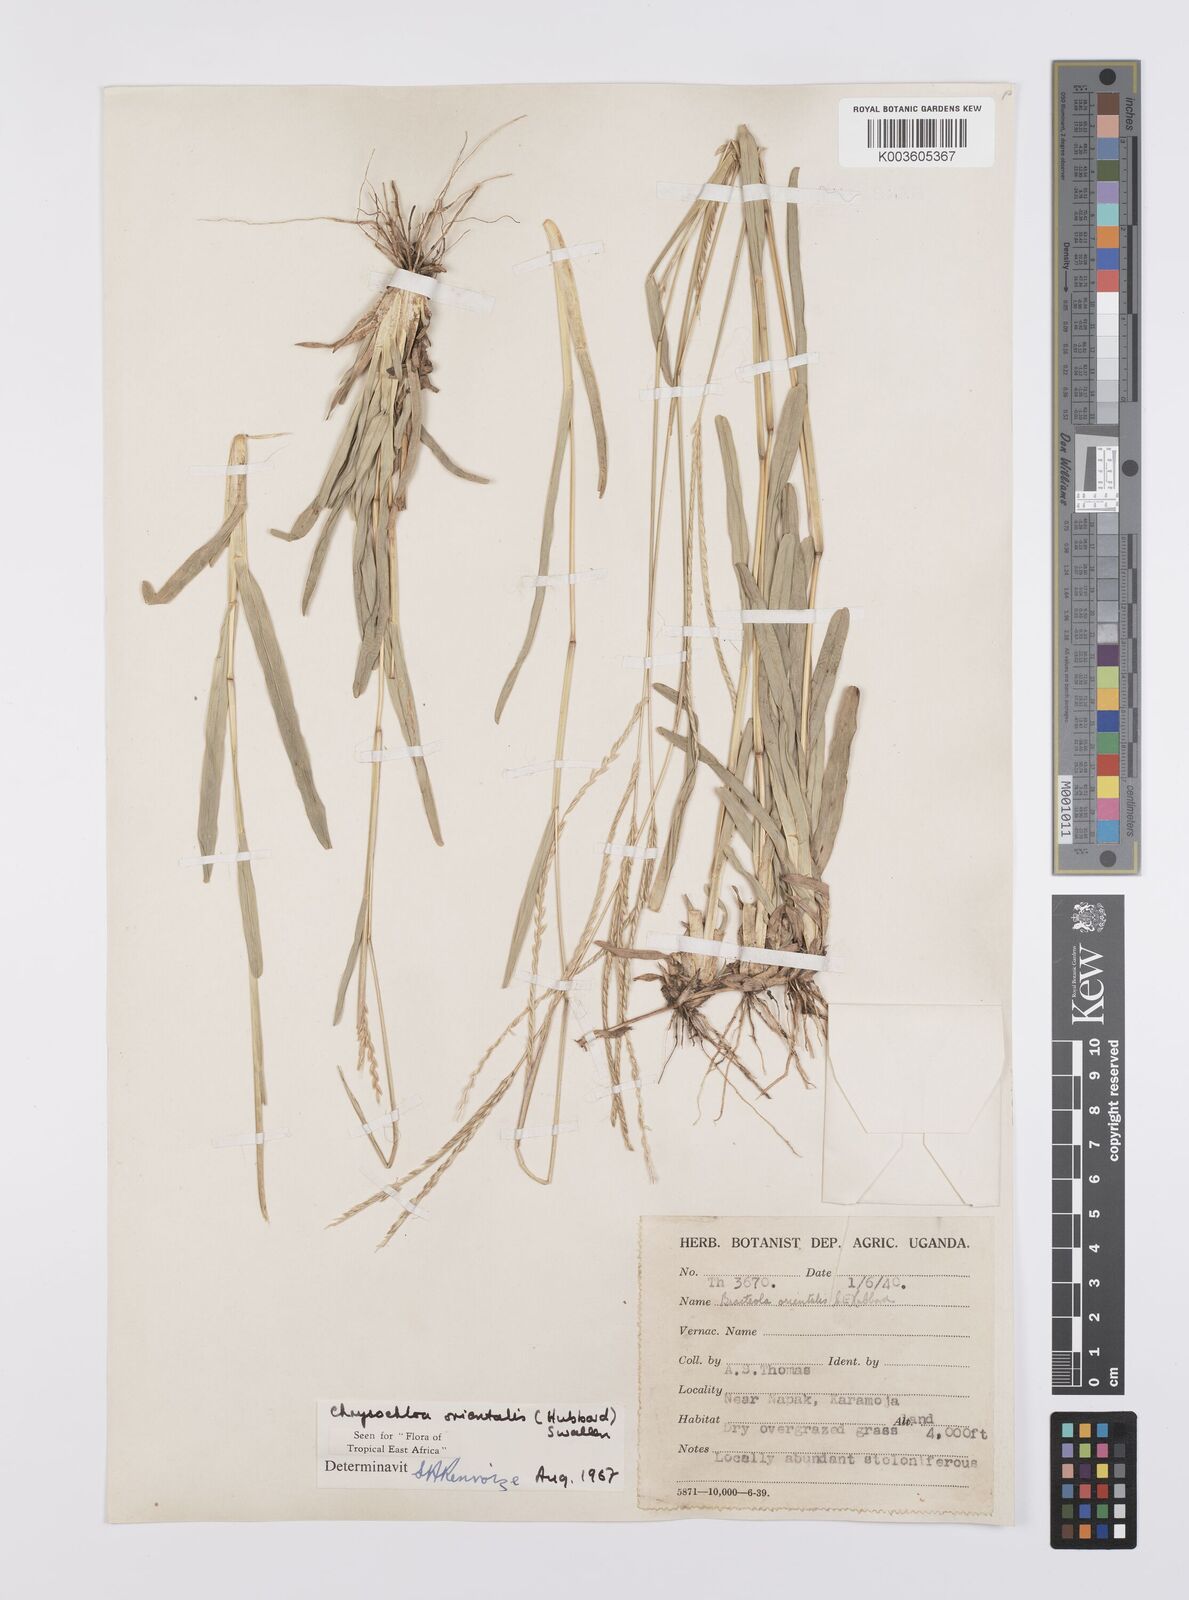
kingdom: Plantae
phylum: Tracheophyta
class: Liliopsida
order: Poales
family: Poaceae
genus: Chrysochloa
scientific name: Chrysochloa orientalis
